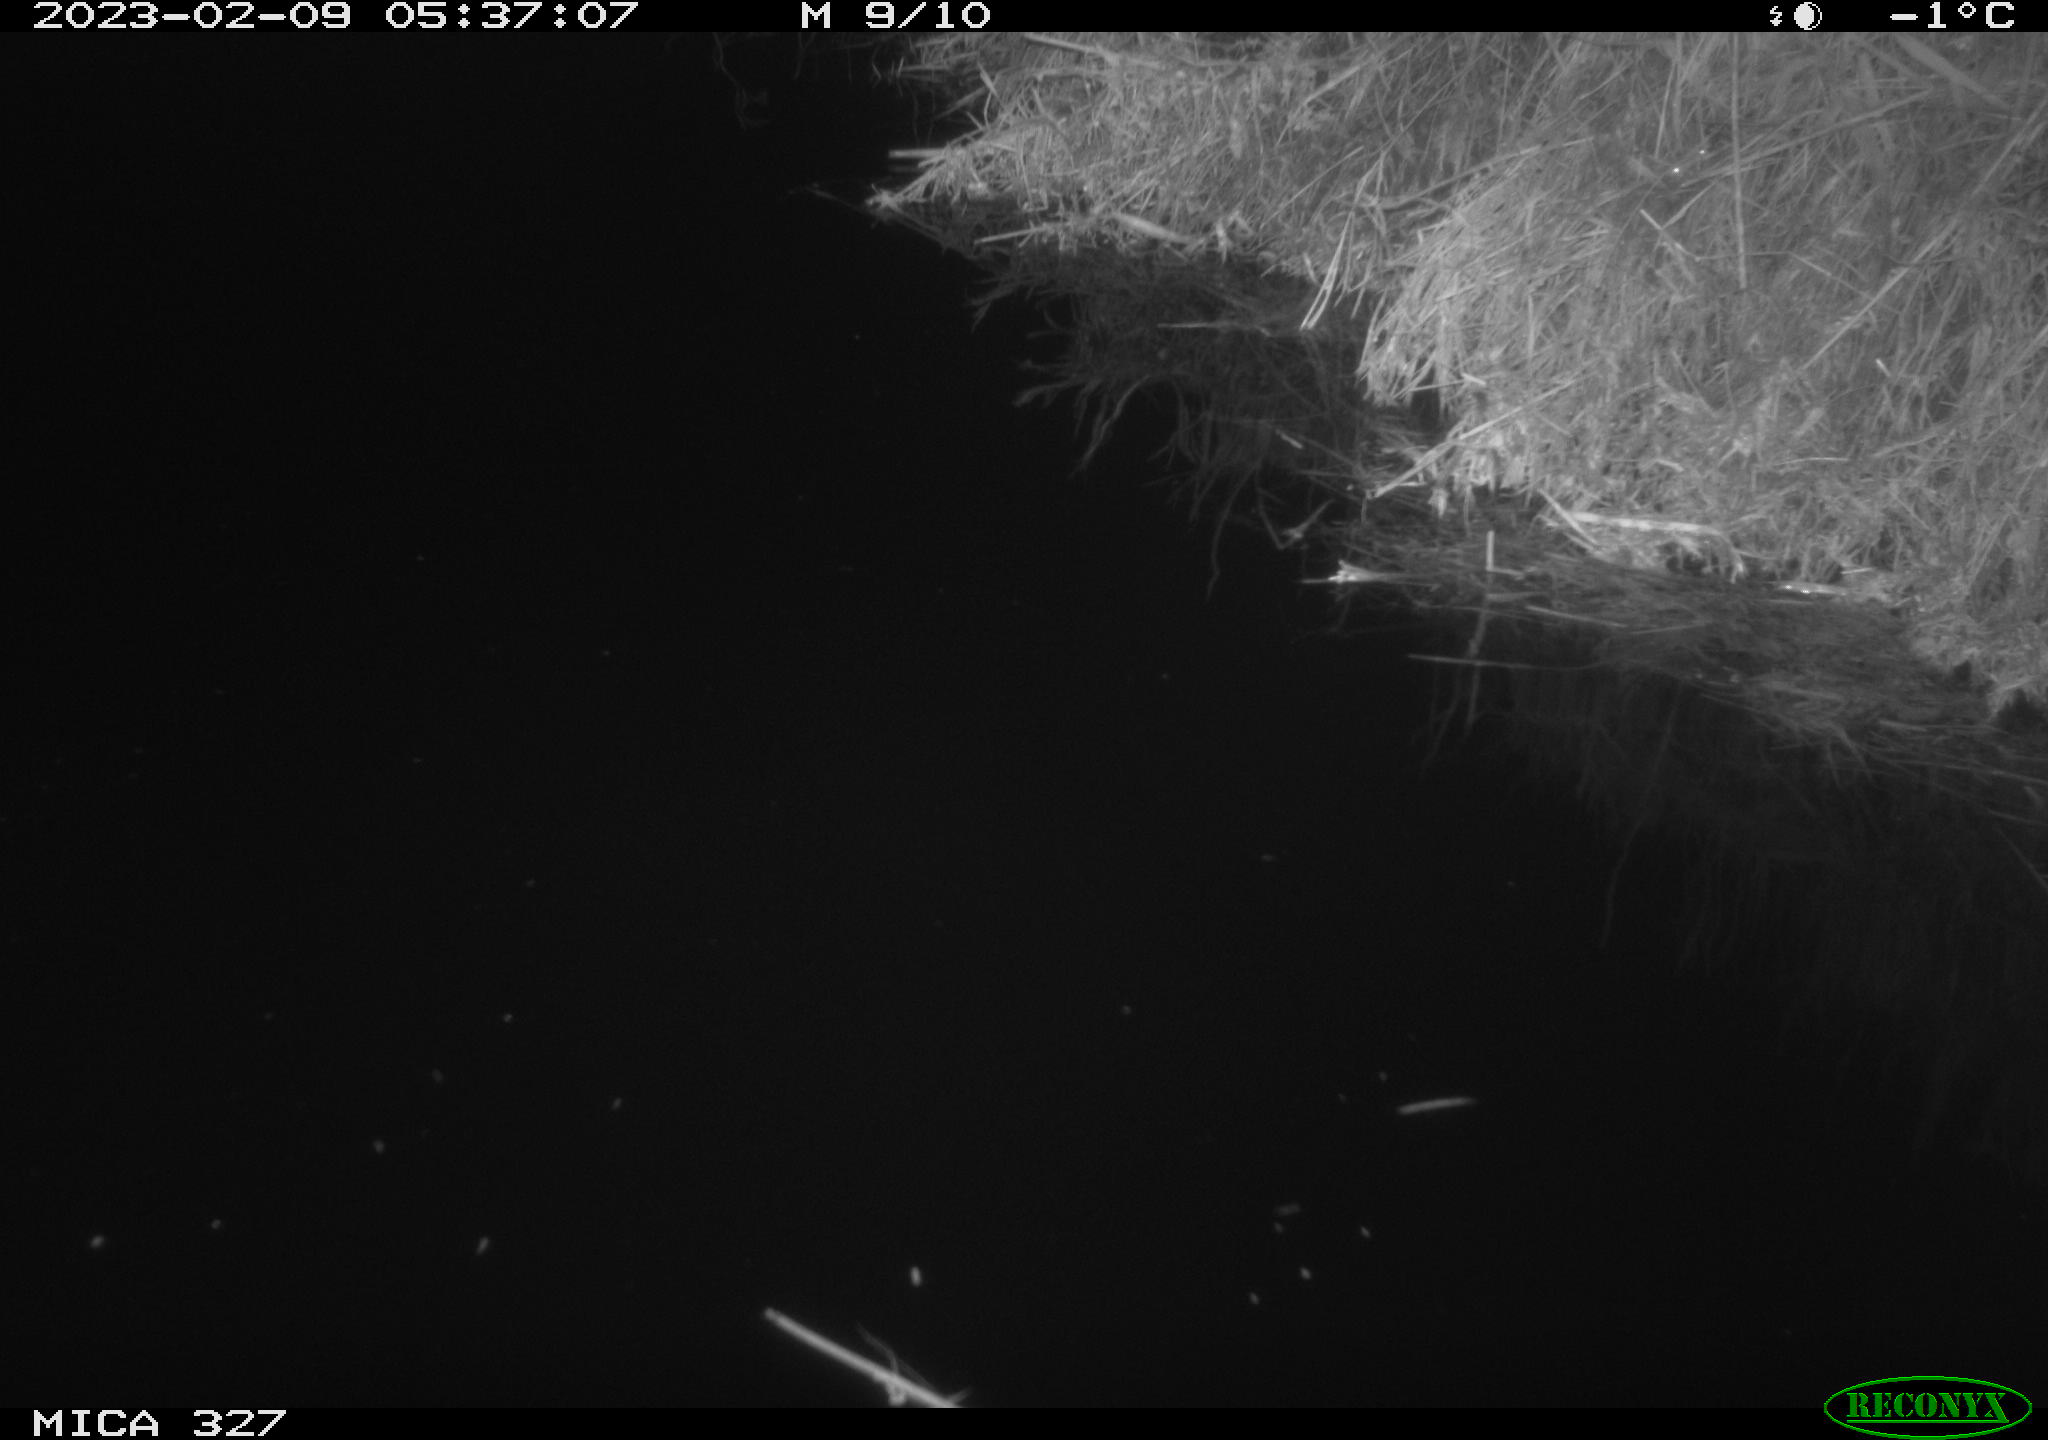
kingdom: Animalia
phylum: Chordata
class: Mammalia
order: Rodentia
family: Cricetidae
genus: Ondatra
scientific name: Ondatra zibethicus
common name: Muskrat
